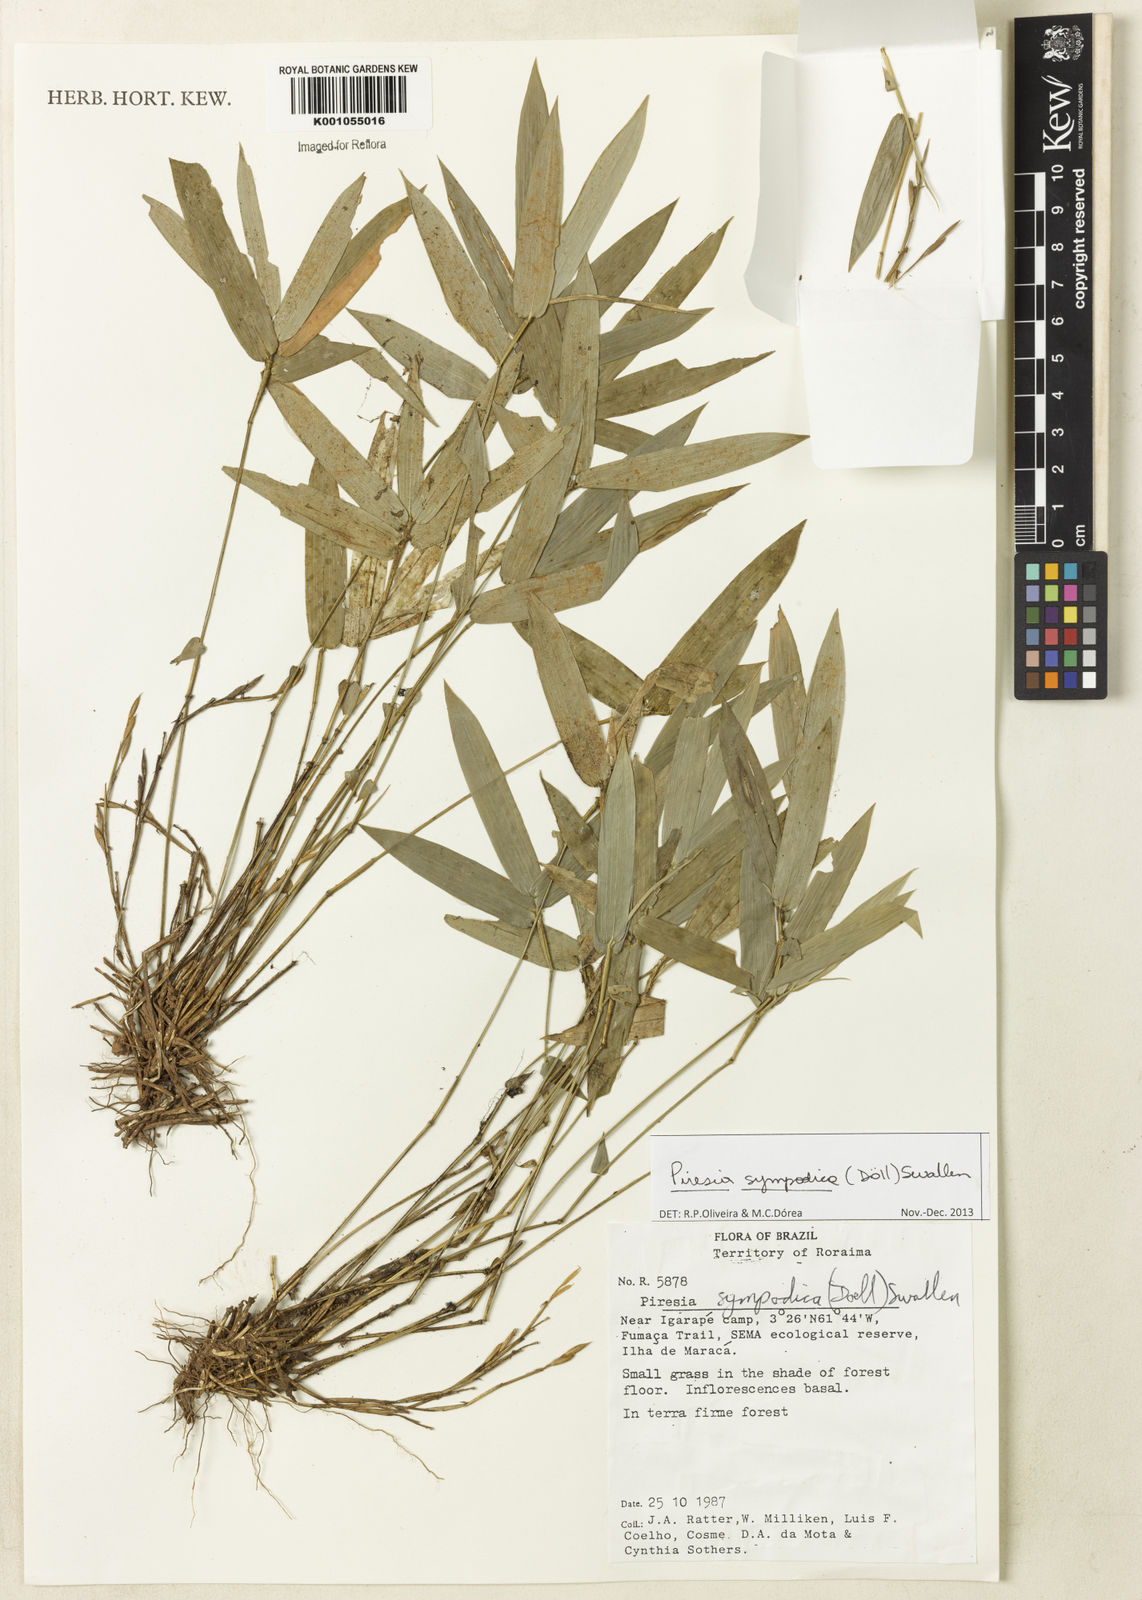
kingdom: Plantae
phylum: Tracheophyta
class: Liliopsida
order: Poales
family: Poaceae
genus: Piresia
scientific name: Piresia
